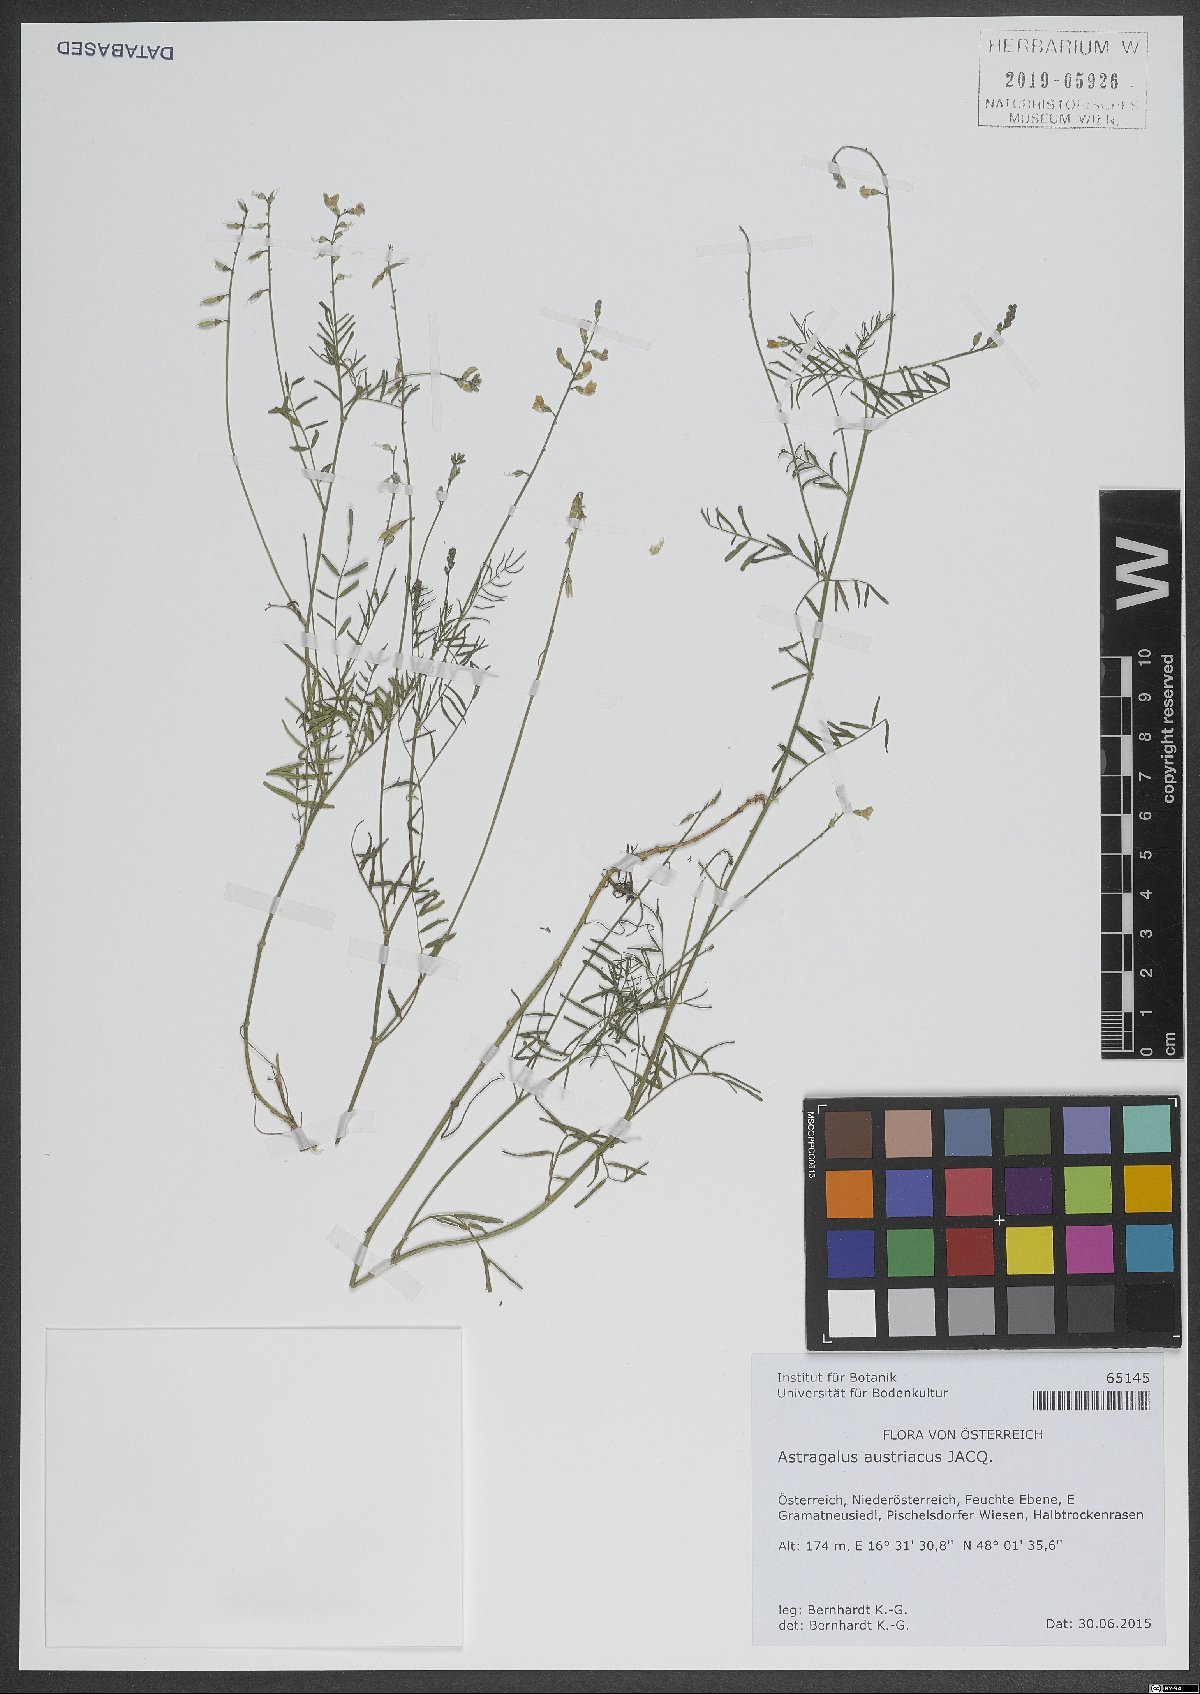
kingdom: Plantae
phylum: Tracheophyta
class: Magnoliopsida
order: Fabales
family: Fabaceae
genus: Astragalus
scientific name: Astragalus austriacus
